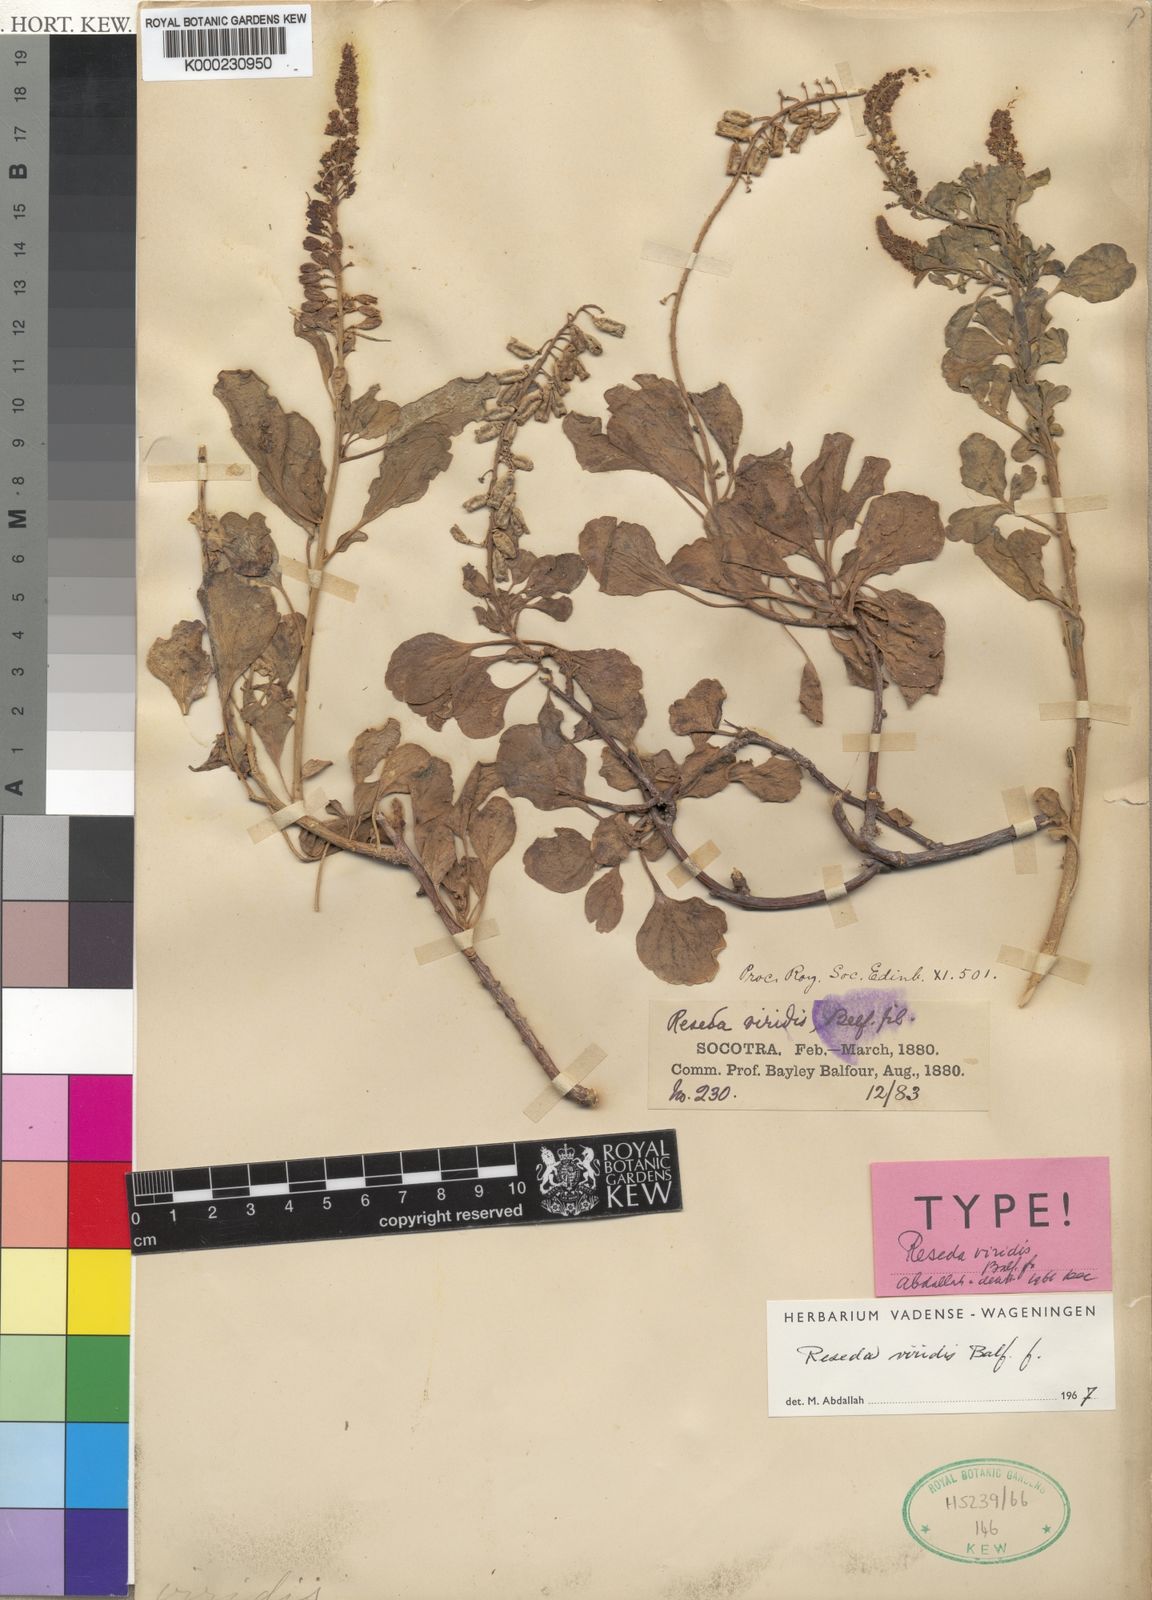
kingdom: Plantae
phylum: Tracheophyta
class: Magnoliopsida
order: Brassicales
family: Resedaceae
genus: Reseda
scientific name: Reseda viridis
